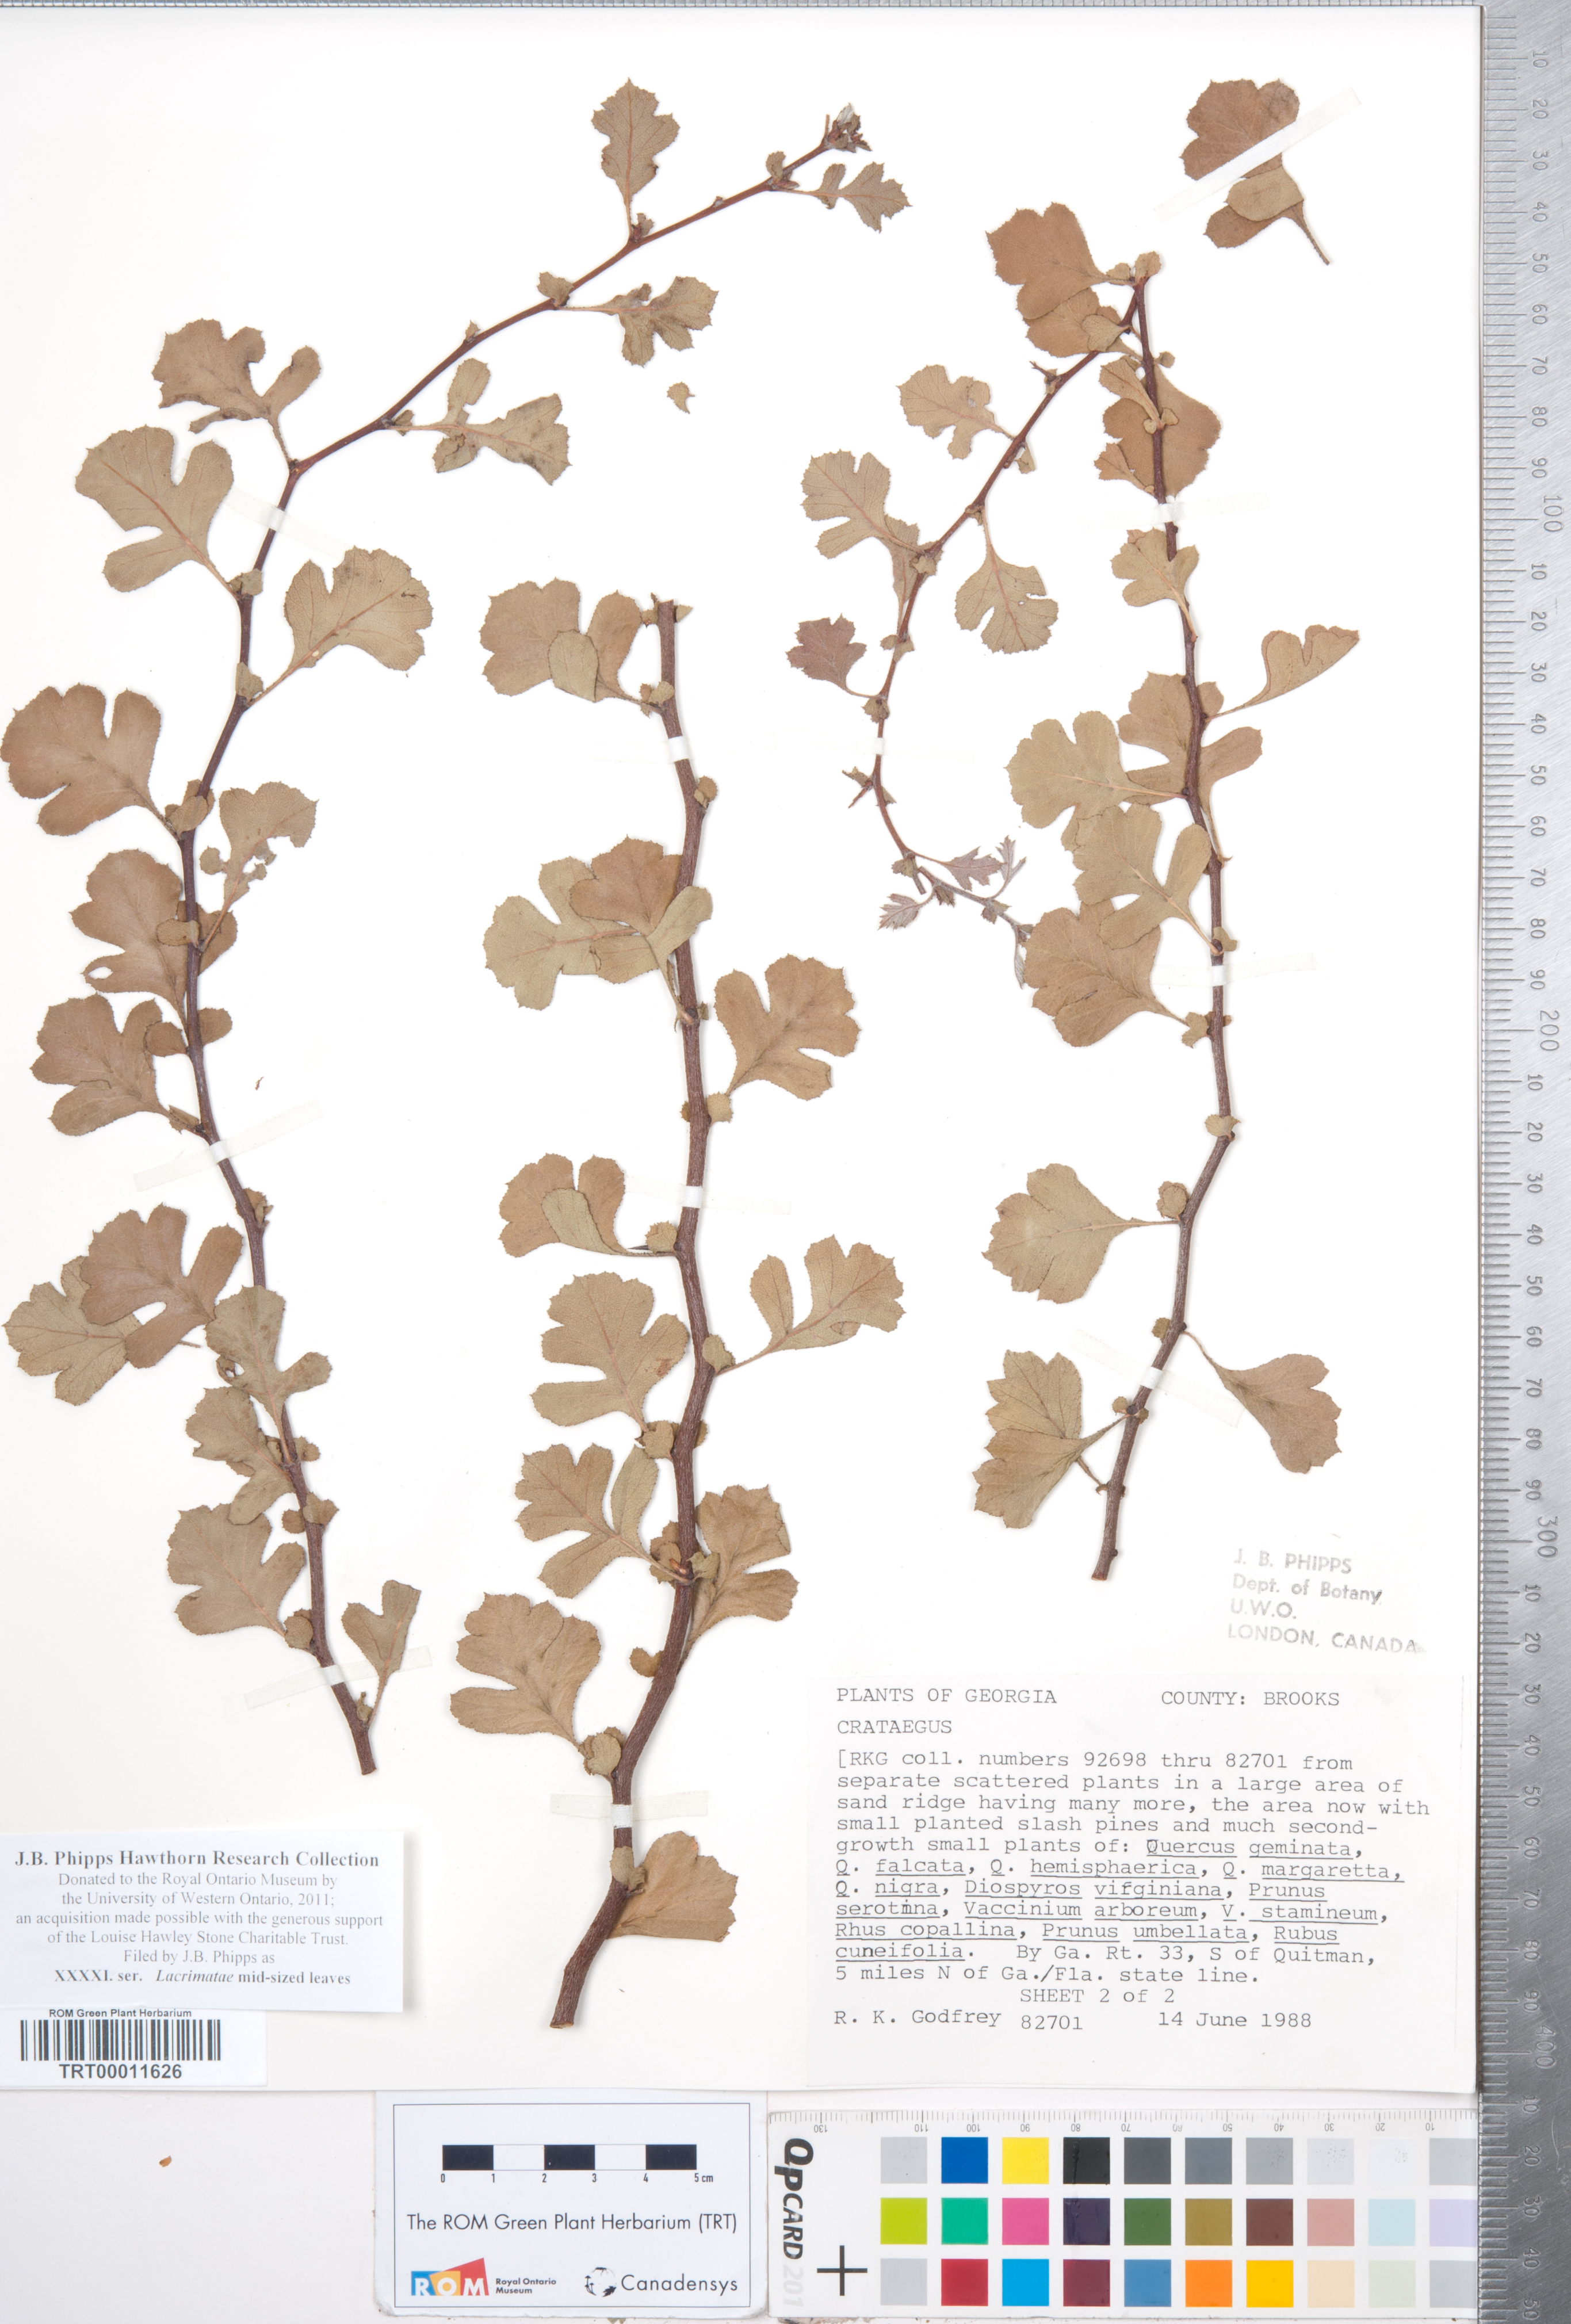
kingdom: Plantae
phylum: Tracheophyta
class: Magnoliopsida
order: Rosales
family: Rosaceae
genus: Crataegus
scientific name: Crataegus
